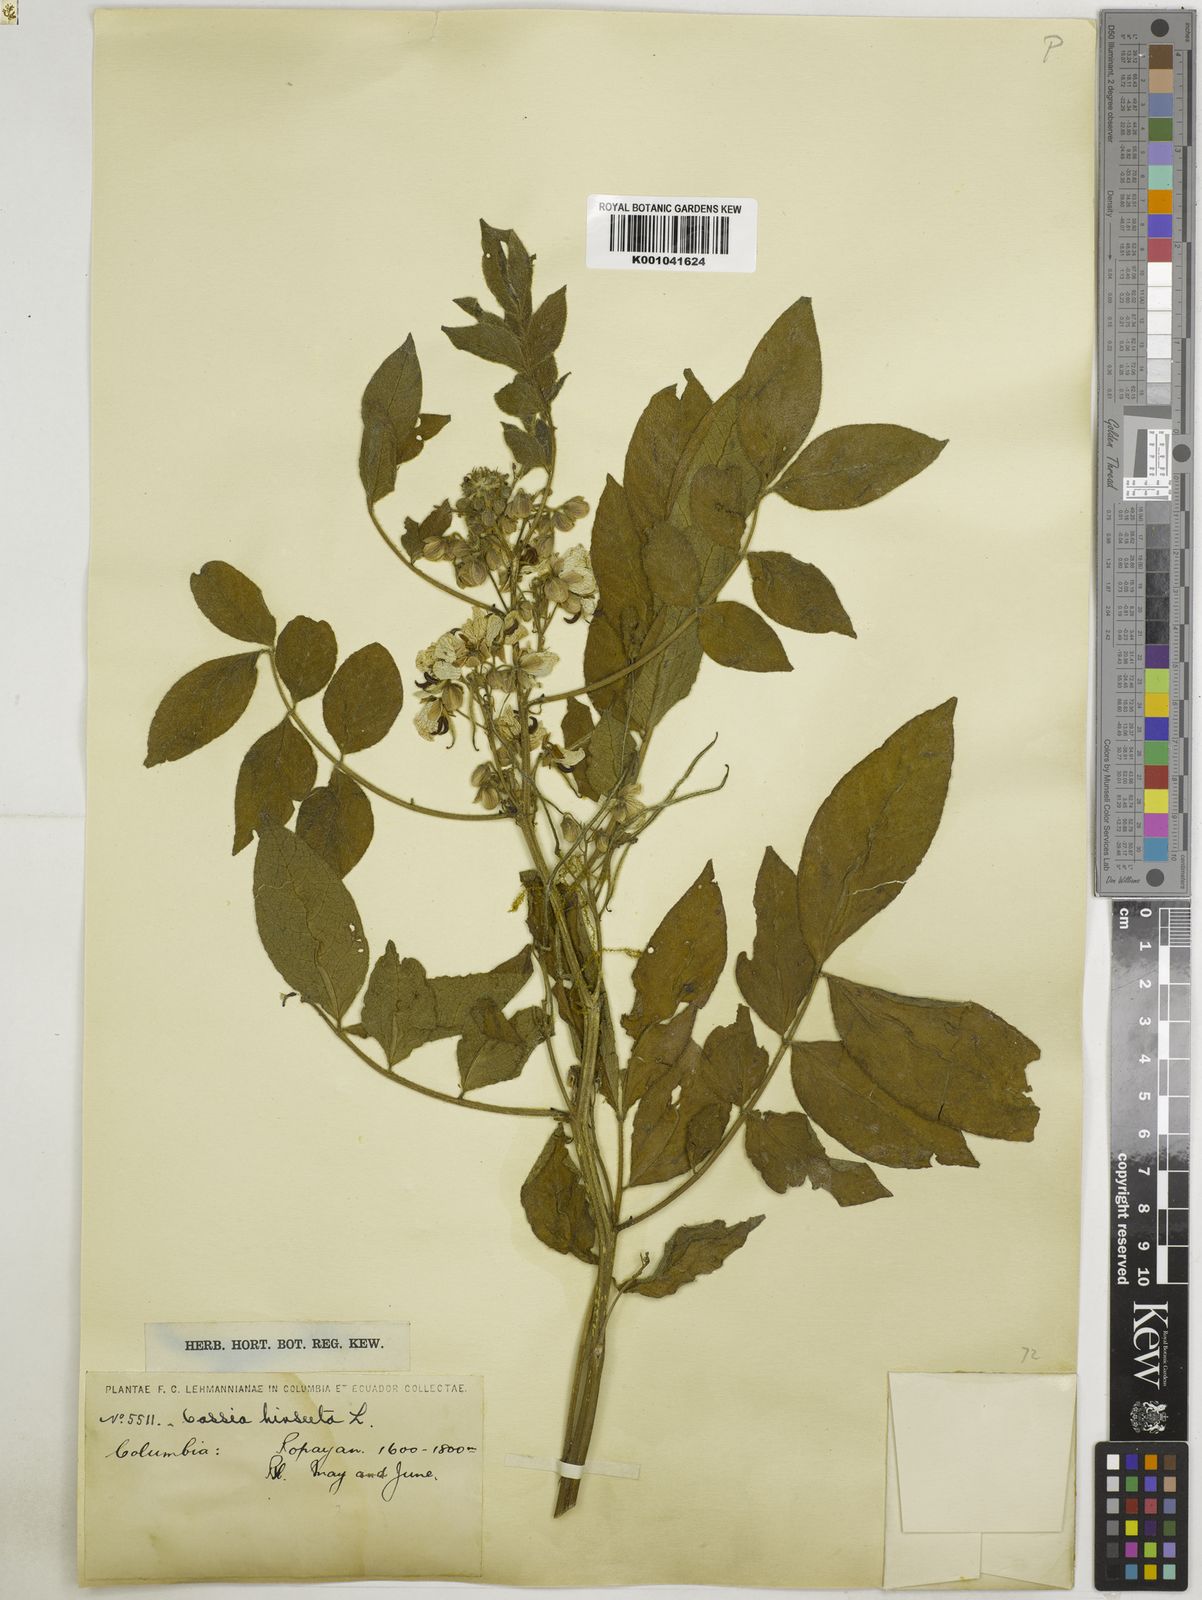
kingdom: Plantae
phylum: Tracheophyta
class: Magnoliopsida
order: Fabales
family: Fabaceae
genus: Senna
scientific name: Senna hirsuta
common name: Woolly senna
